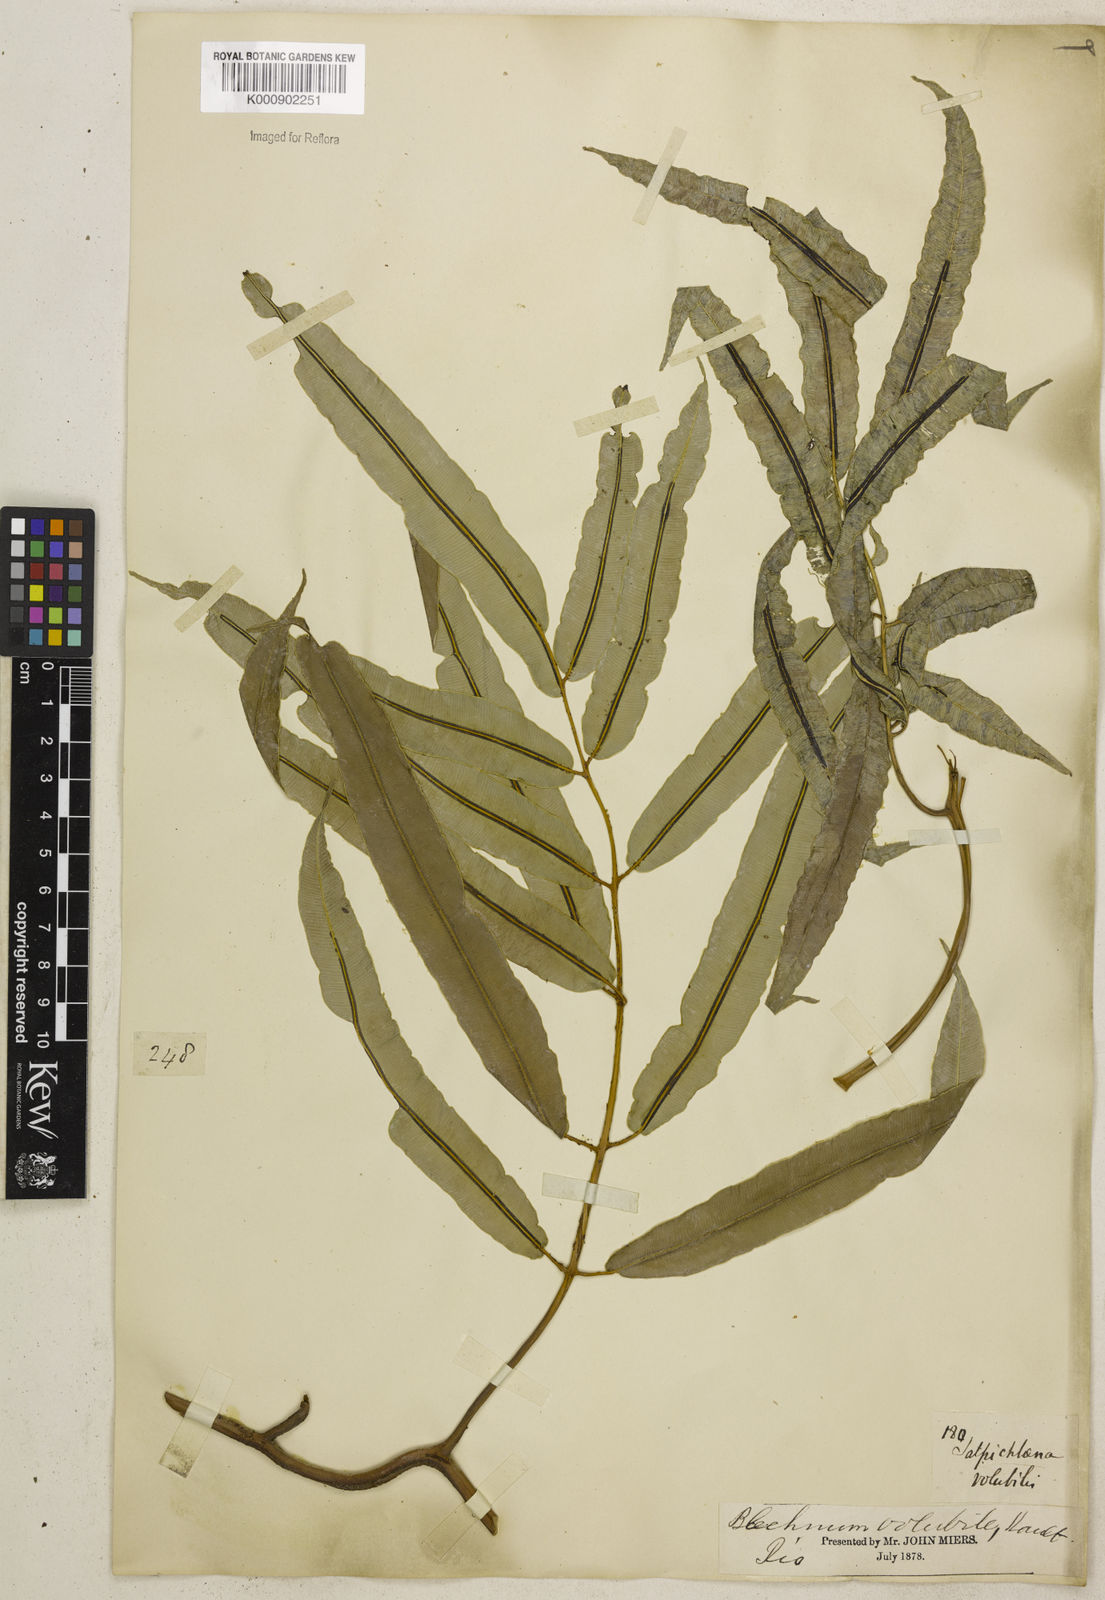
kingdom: Plantae
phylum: Tracheophyta
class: Polypodiopsida
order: Polypodiales
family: Blechnaceae
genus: Salpichlaena
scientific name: Salpichlaena volubilis
